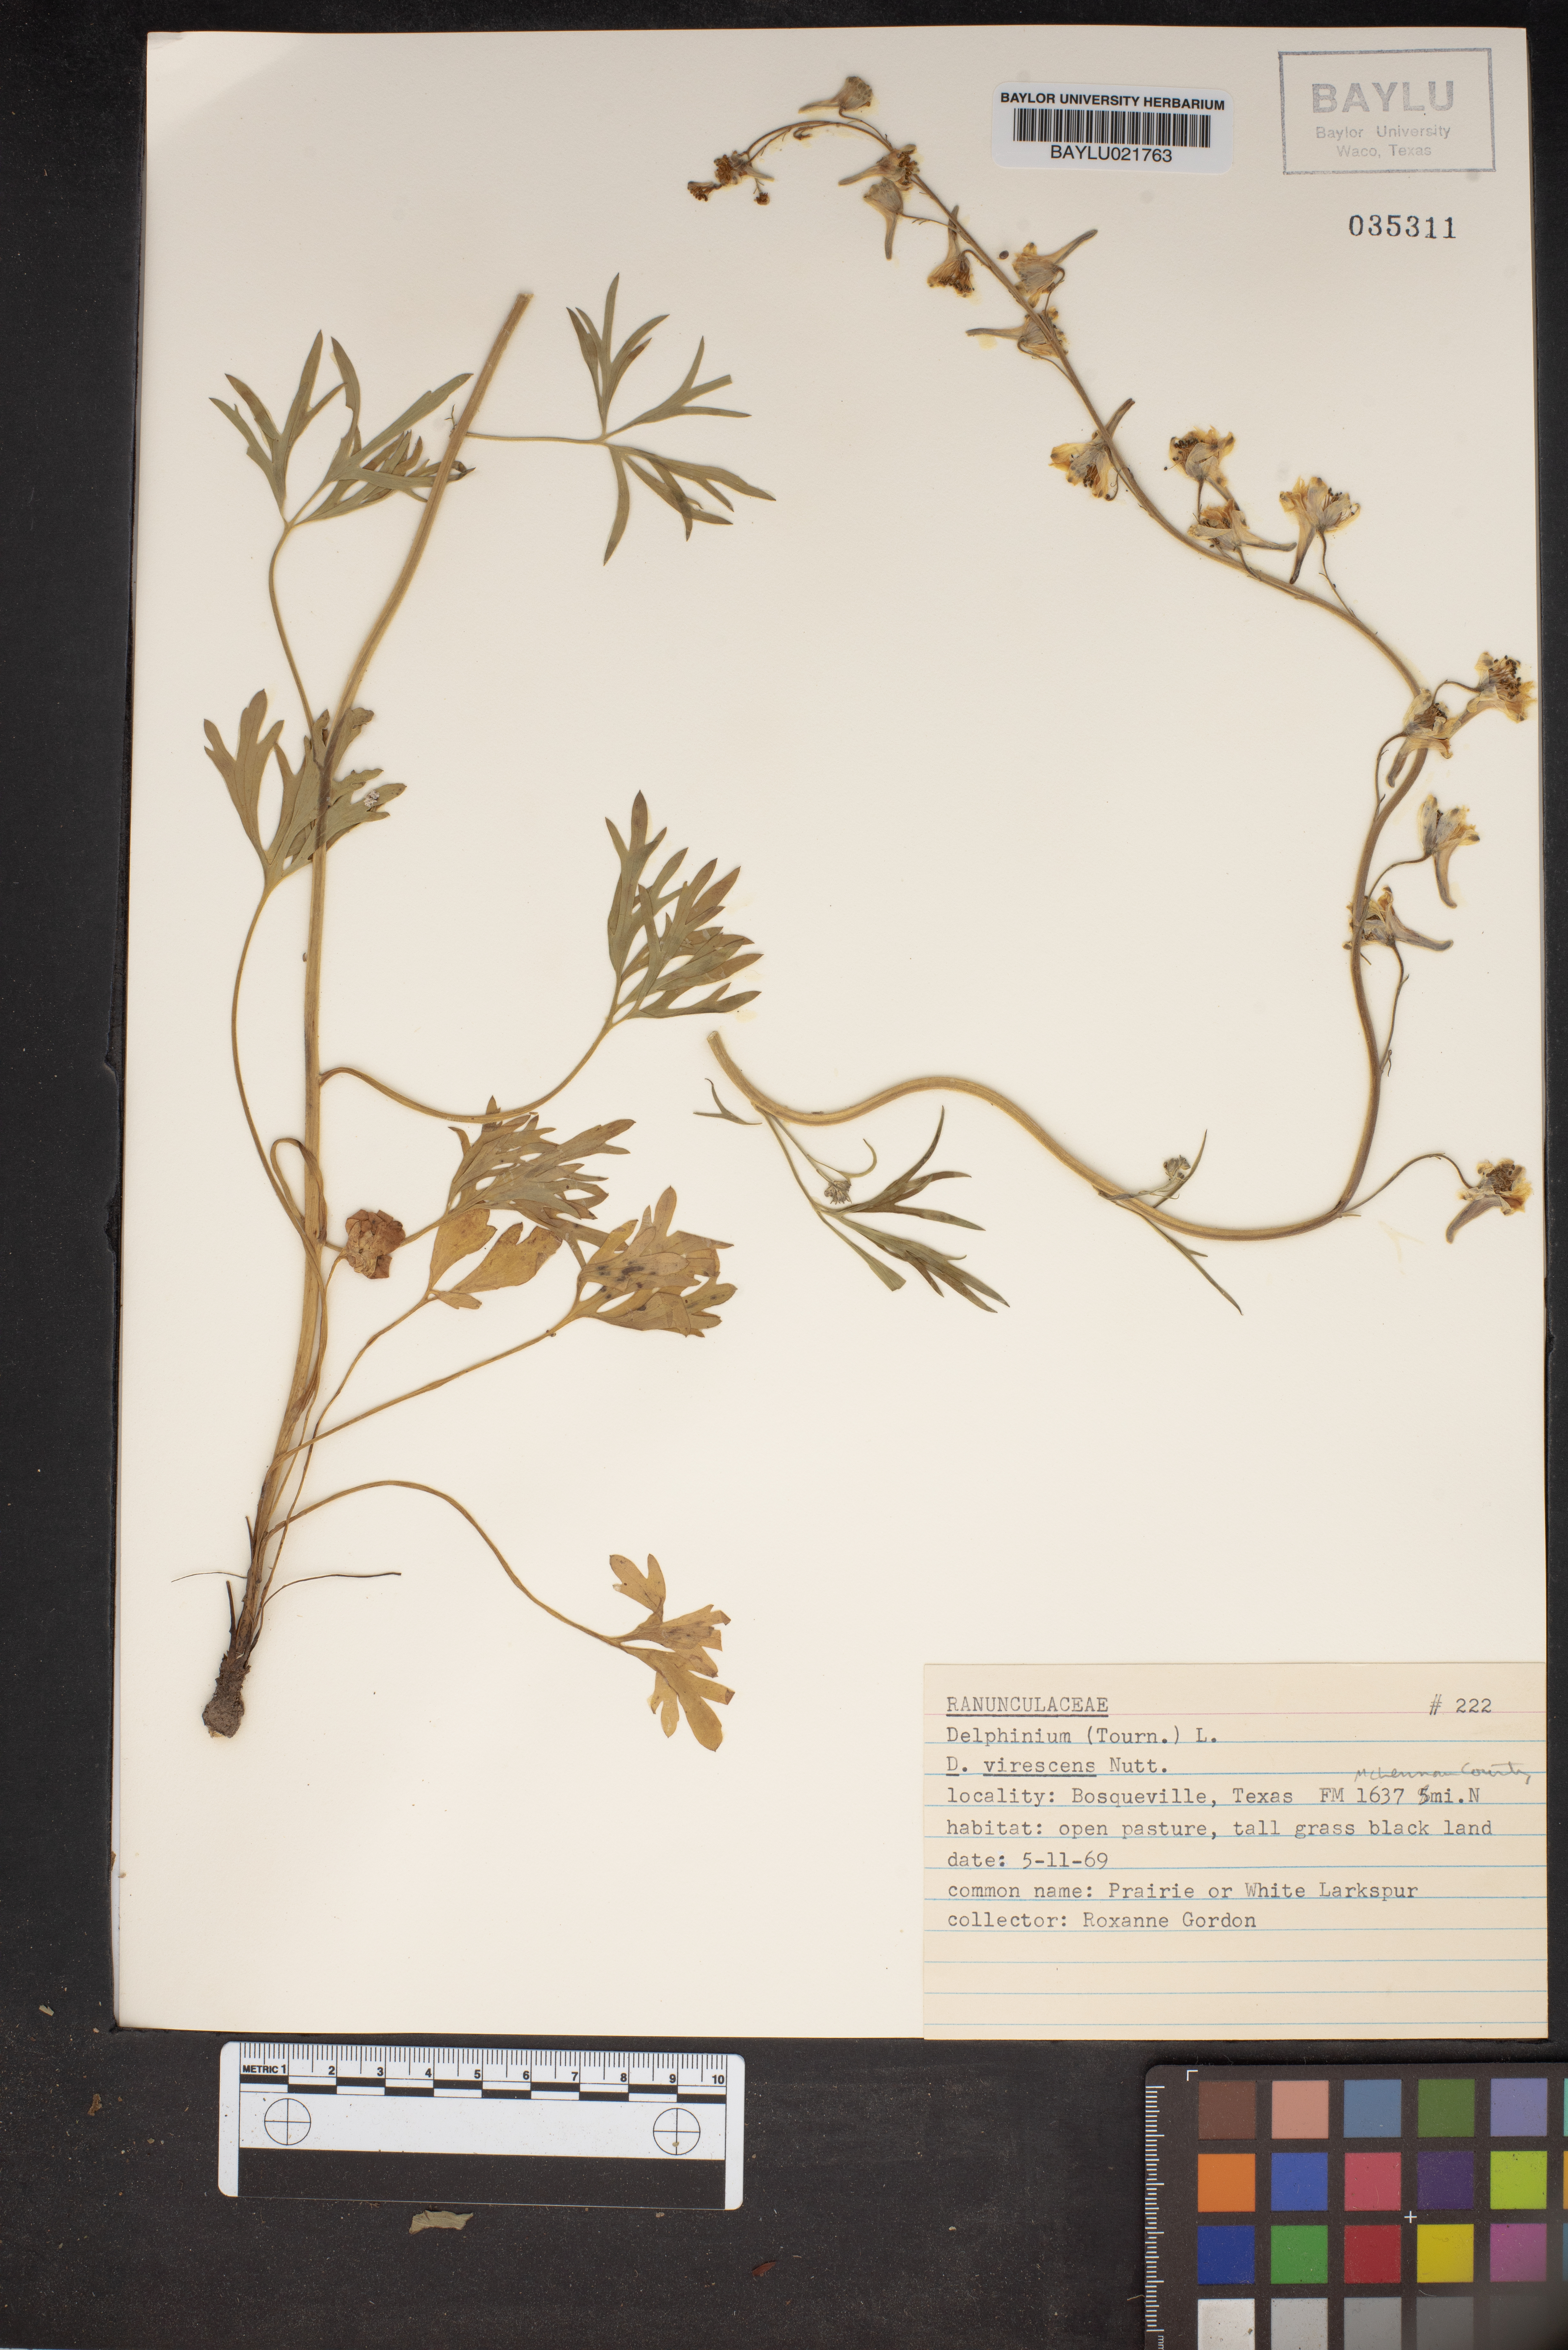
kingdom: Plantae
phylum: Tracheophyta
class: Magnoliopsida
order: Ranunculales
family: Ranunculaceae
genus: Delphinium
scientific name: Delphinium carolinianum
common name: Carolina larkspur
